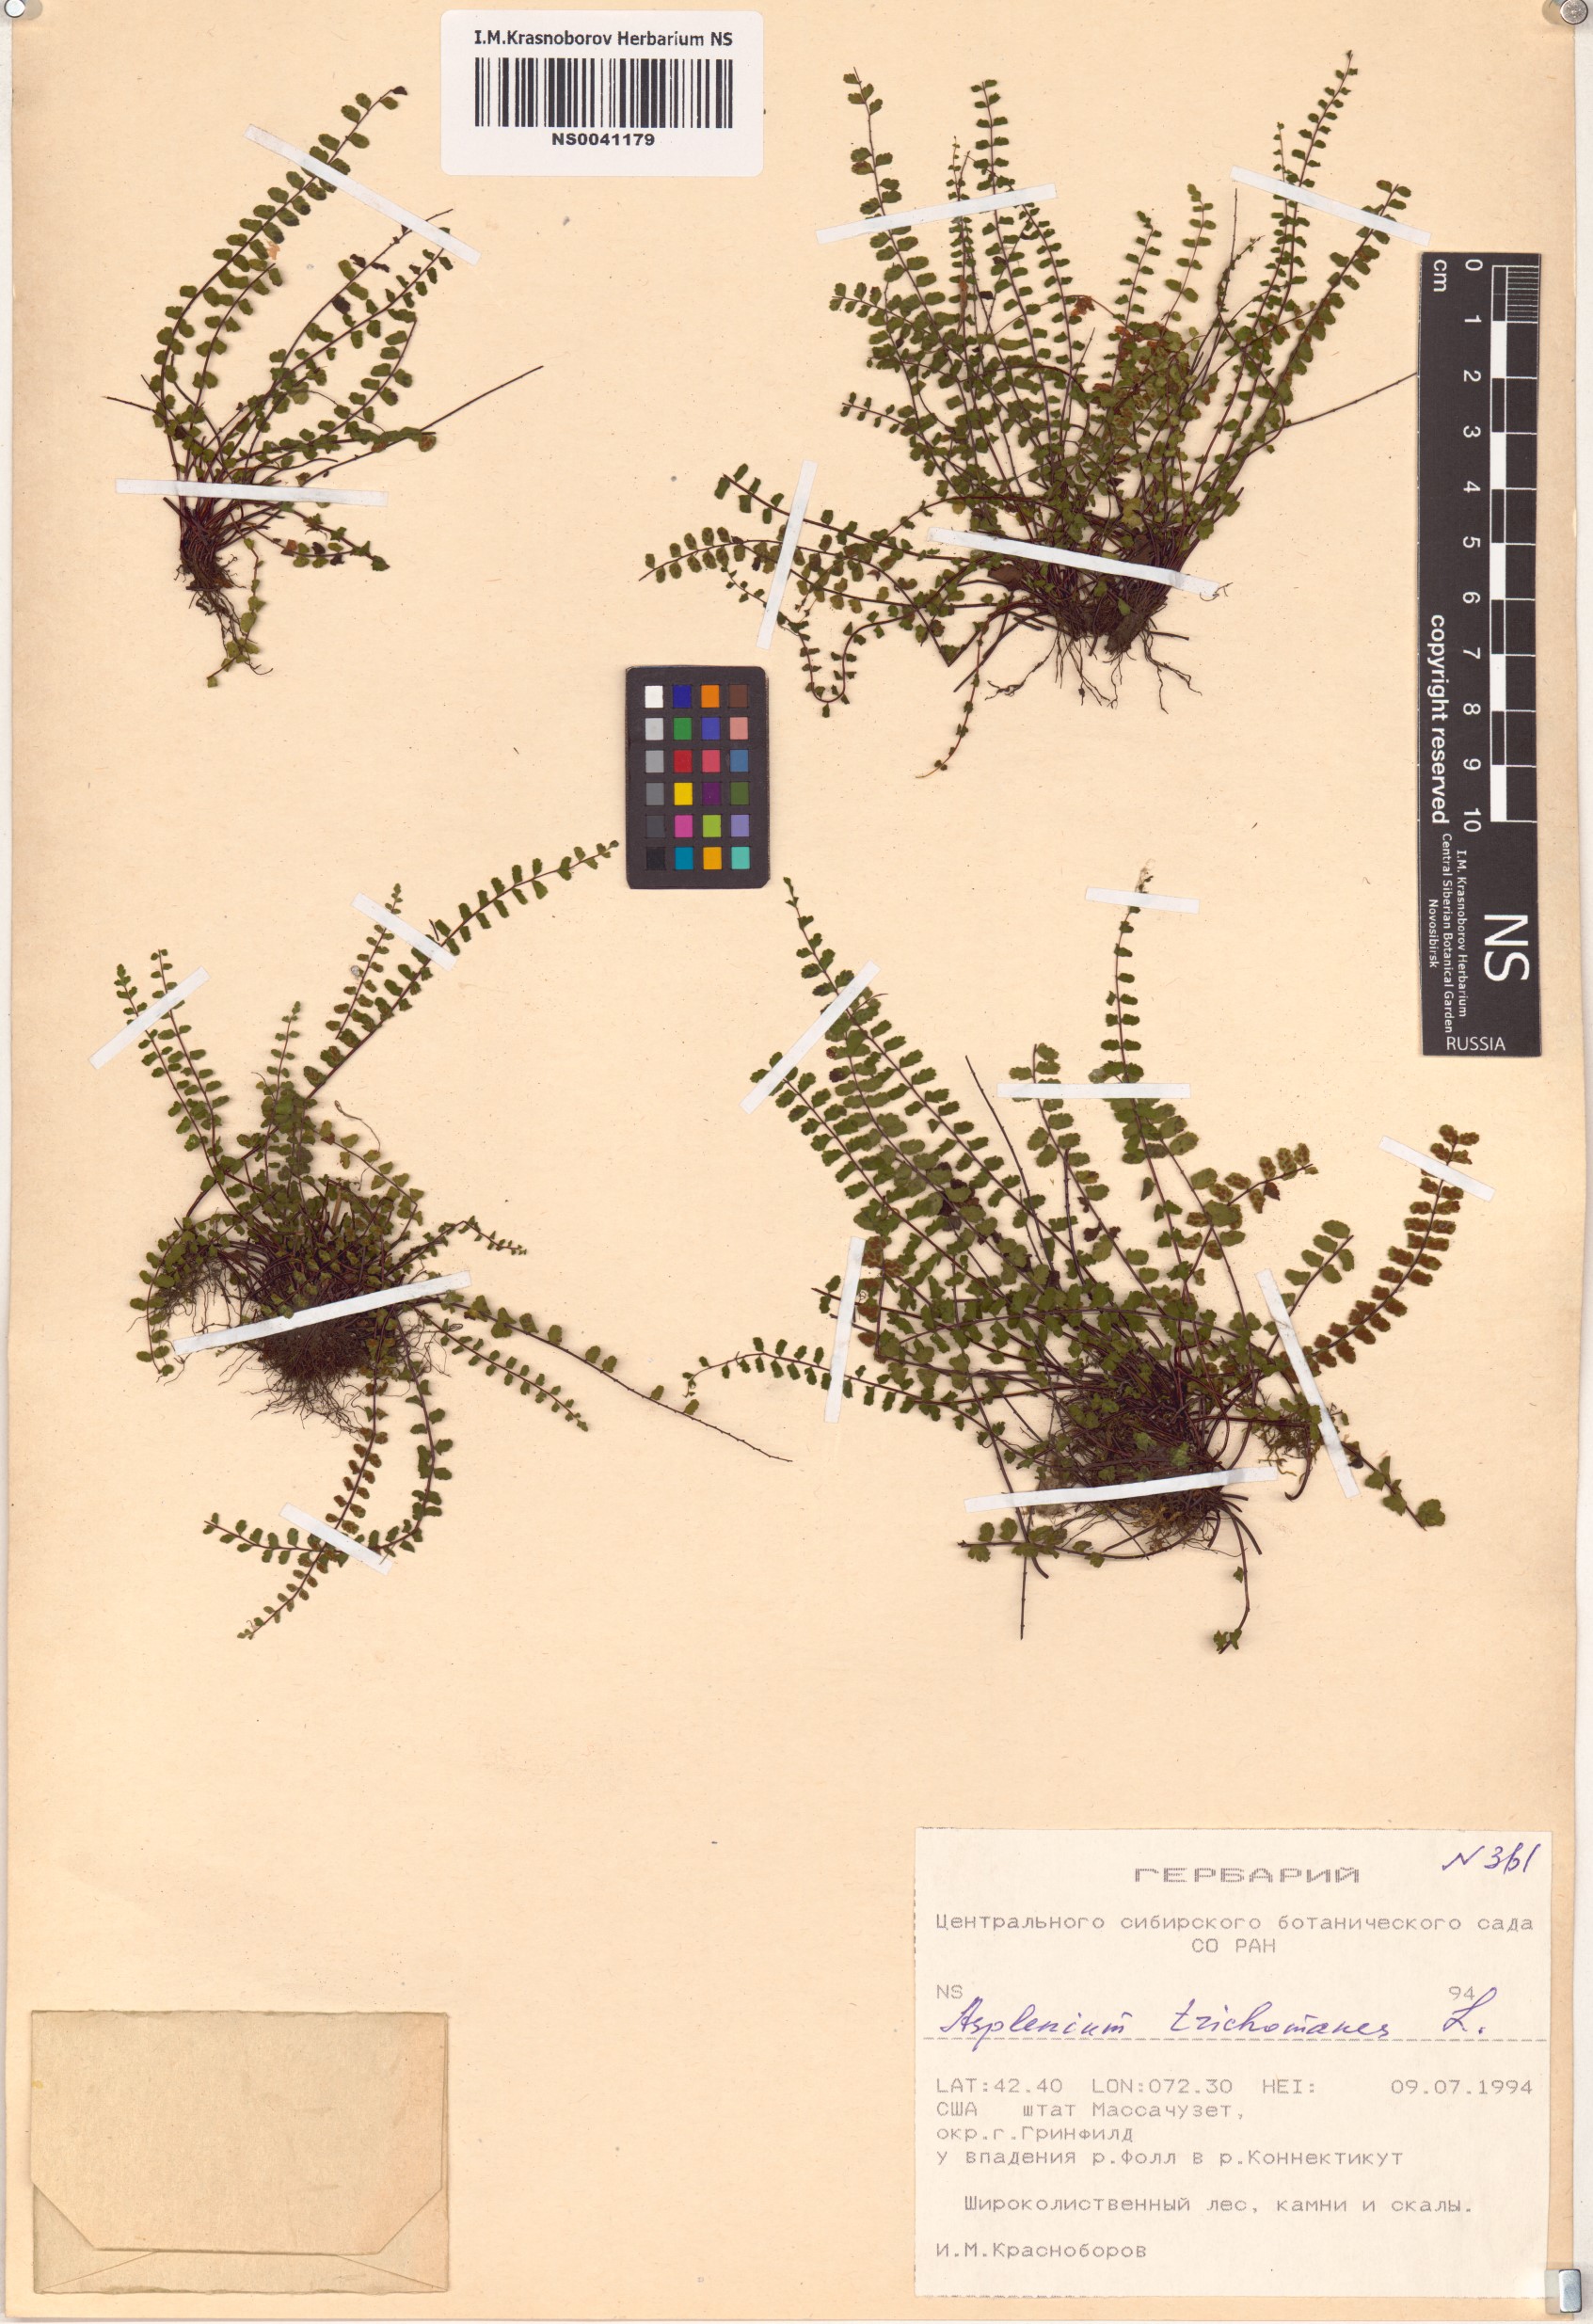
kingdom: Plantae
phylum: Tracheophyta
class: Polypodiopsida
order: Polypodiales
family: Aspleniaceae
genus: Asplenium
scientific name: Asplenium trichomanes
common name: Maidenhair spleenwort
